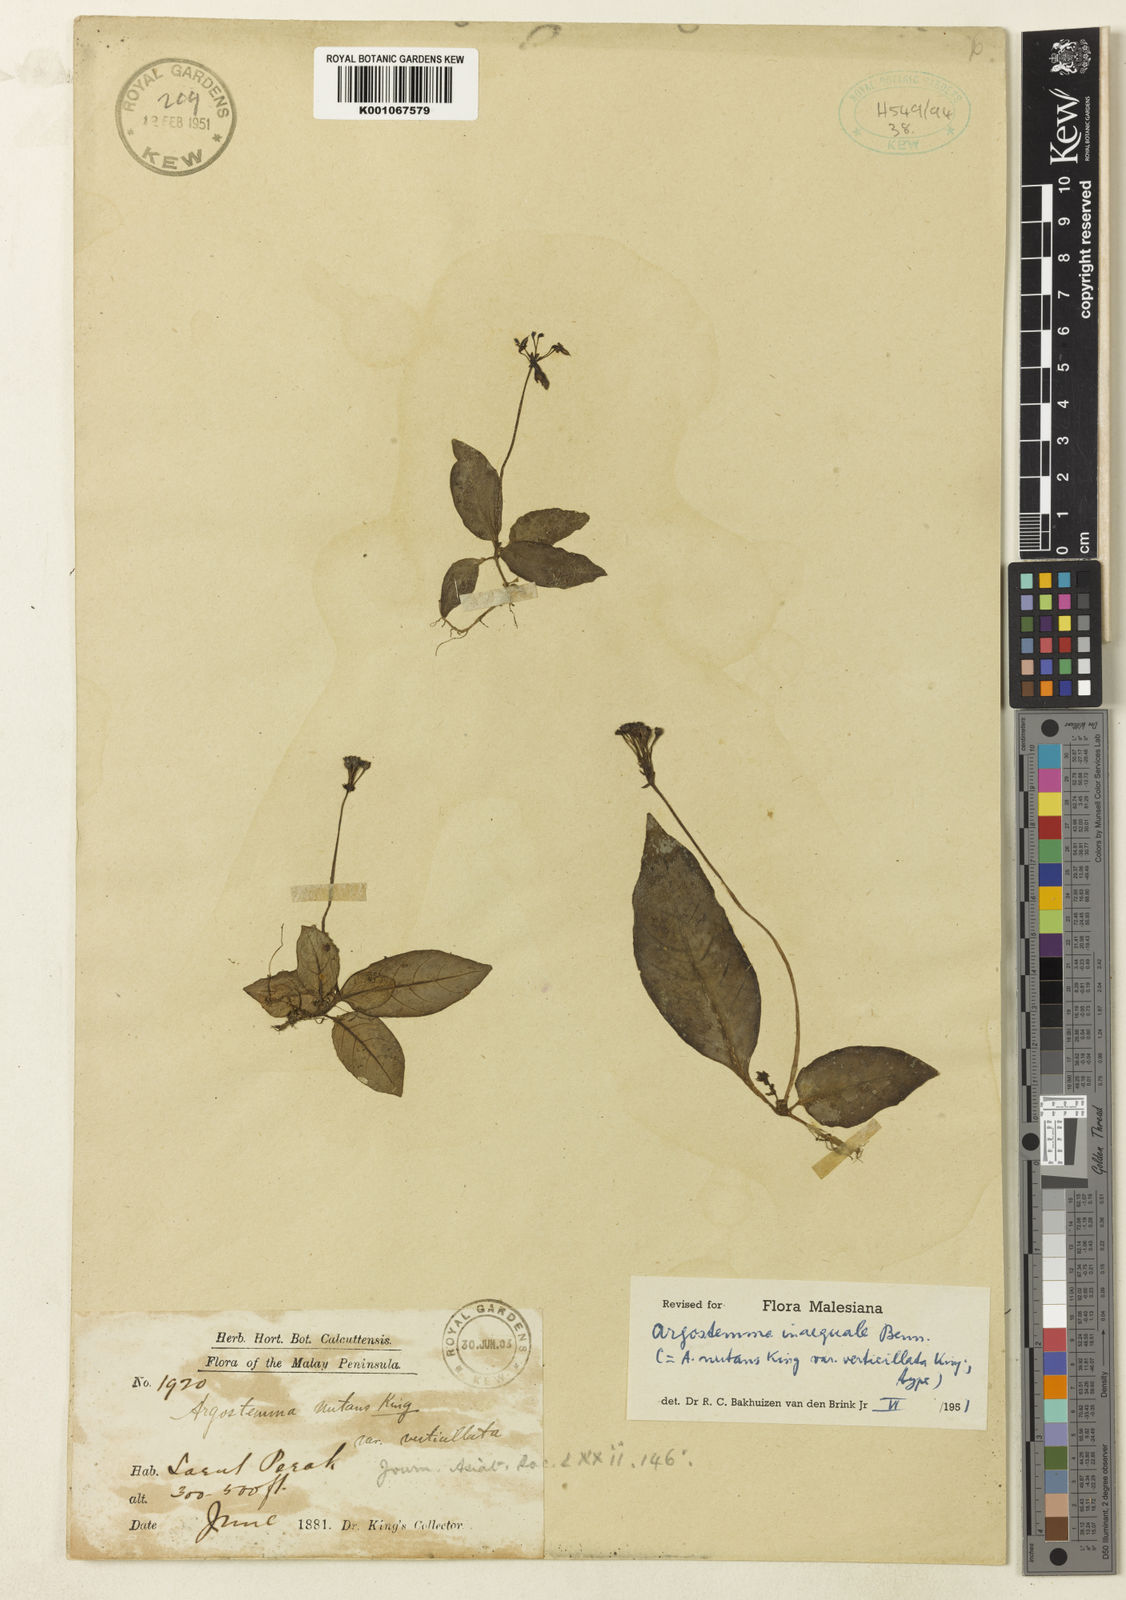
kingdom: Plantae
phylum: Tracheophyta
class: Magnoliopsida
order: Gentianales
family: Rubiaceae
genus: Argostemma
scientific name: Argostemma inaequale
